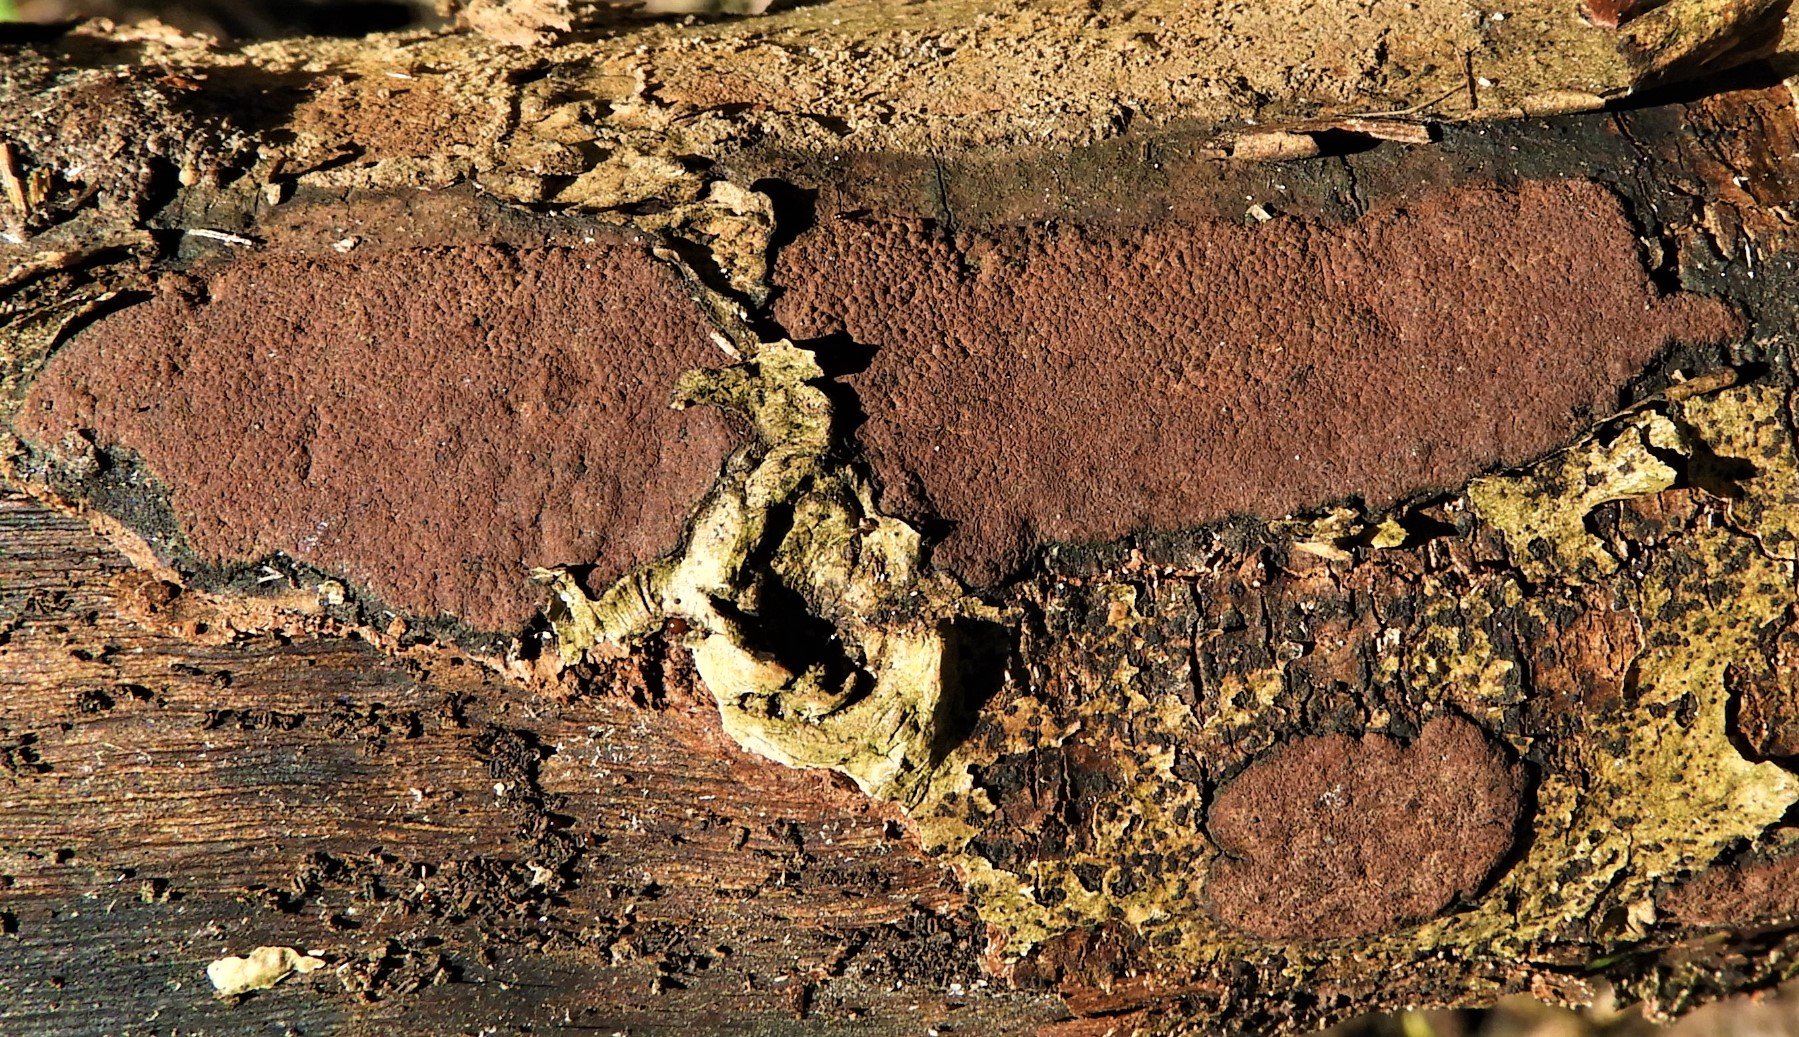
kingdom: Fungi
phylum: Ascomycota
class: Sordariomycetes
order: Xylariales
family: Hypoxylaceae
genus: Hypoxylon
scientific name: Hypoxylon petriniae
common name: nedsænket kulbær
